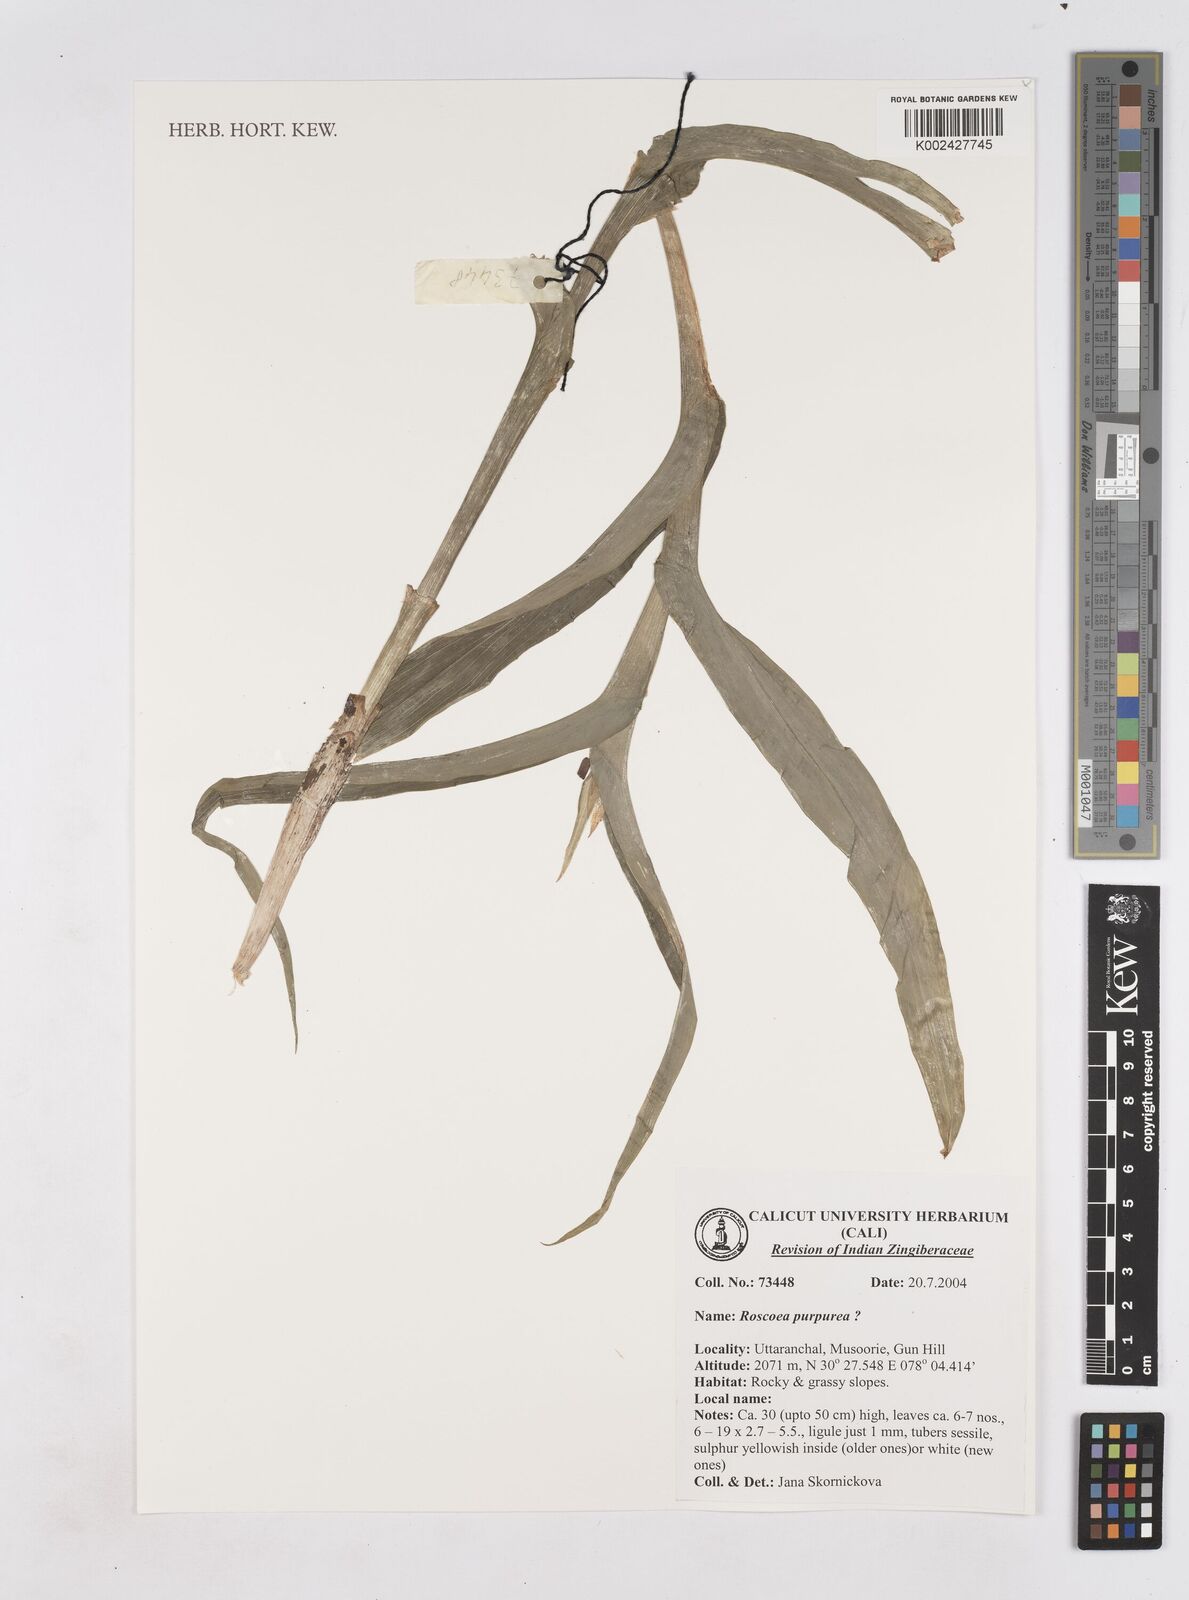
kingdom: Plantae
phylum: Tracheophyta
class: Liliopsida
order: Zingiberales
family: Zingiberaceae
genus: Roscoea
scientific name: Roscoea purpurea
